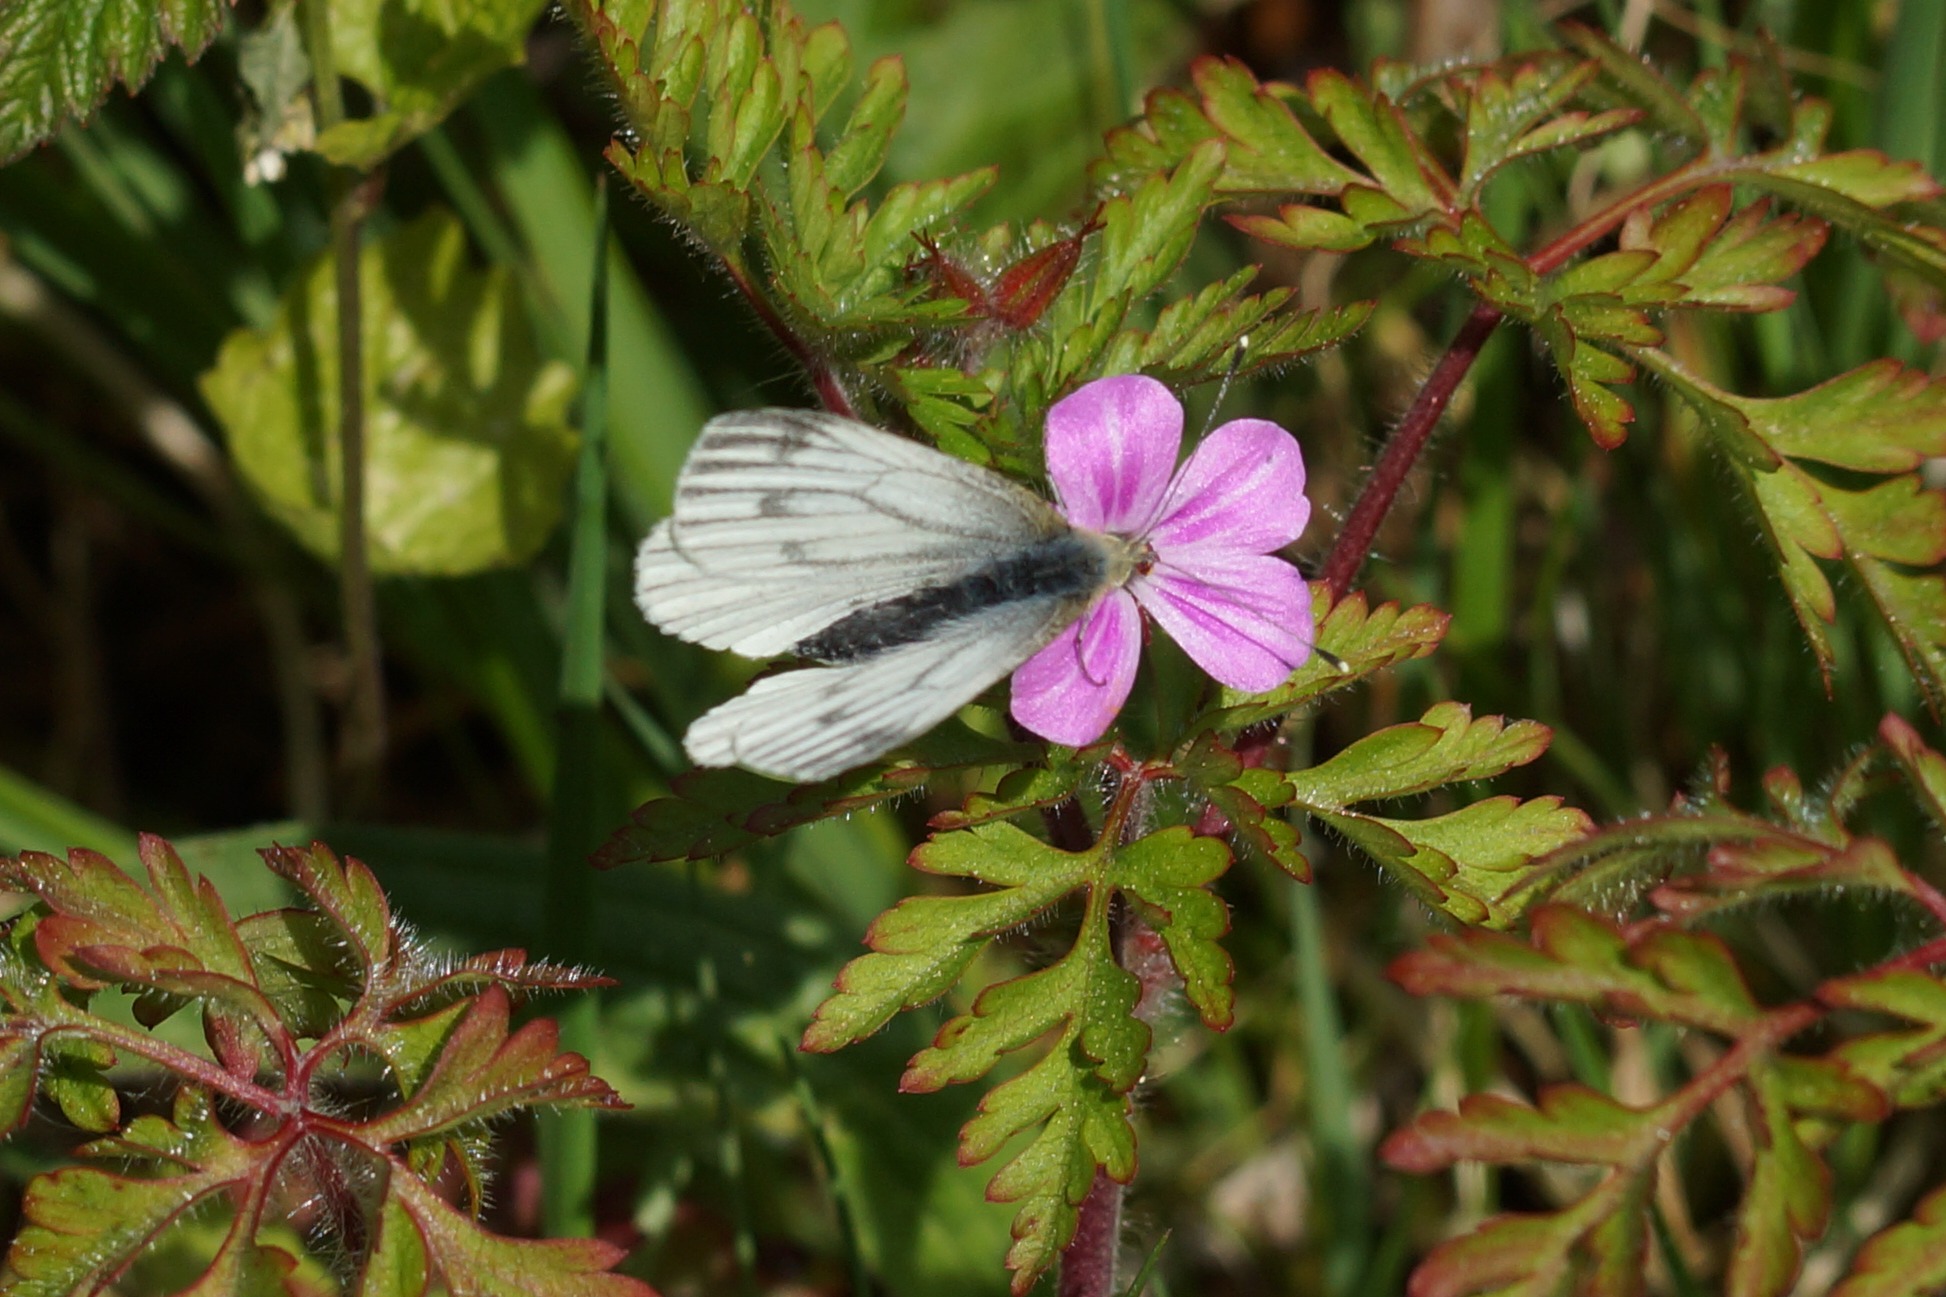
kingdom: Animalia
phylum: Arthropoda
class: Insecta
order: Lepidoptera
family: Pieridae
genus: Pieris
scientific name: Pieris napi
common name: Grønåret kålsommerfugl
